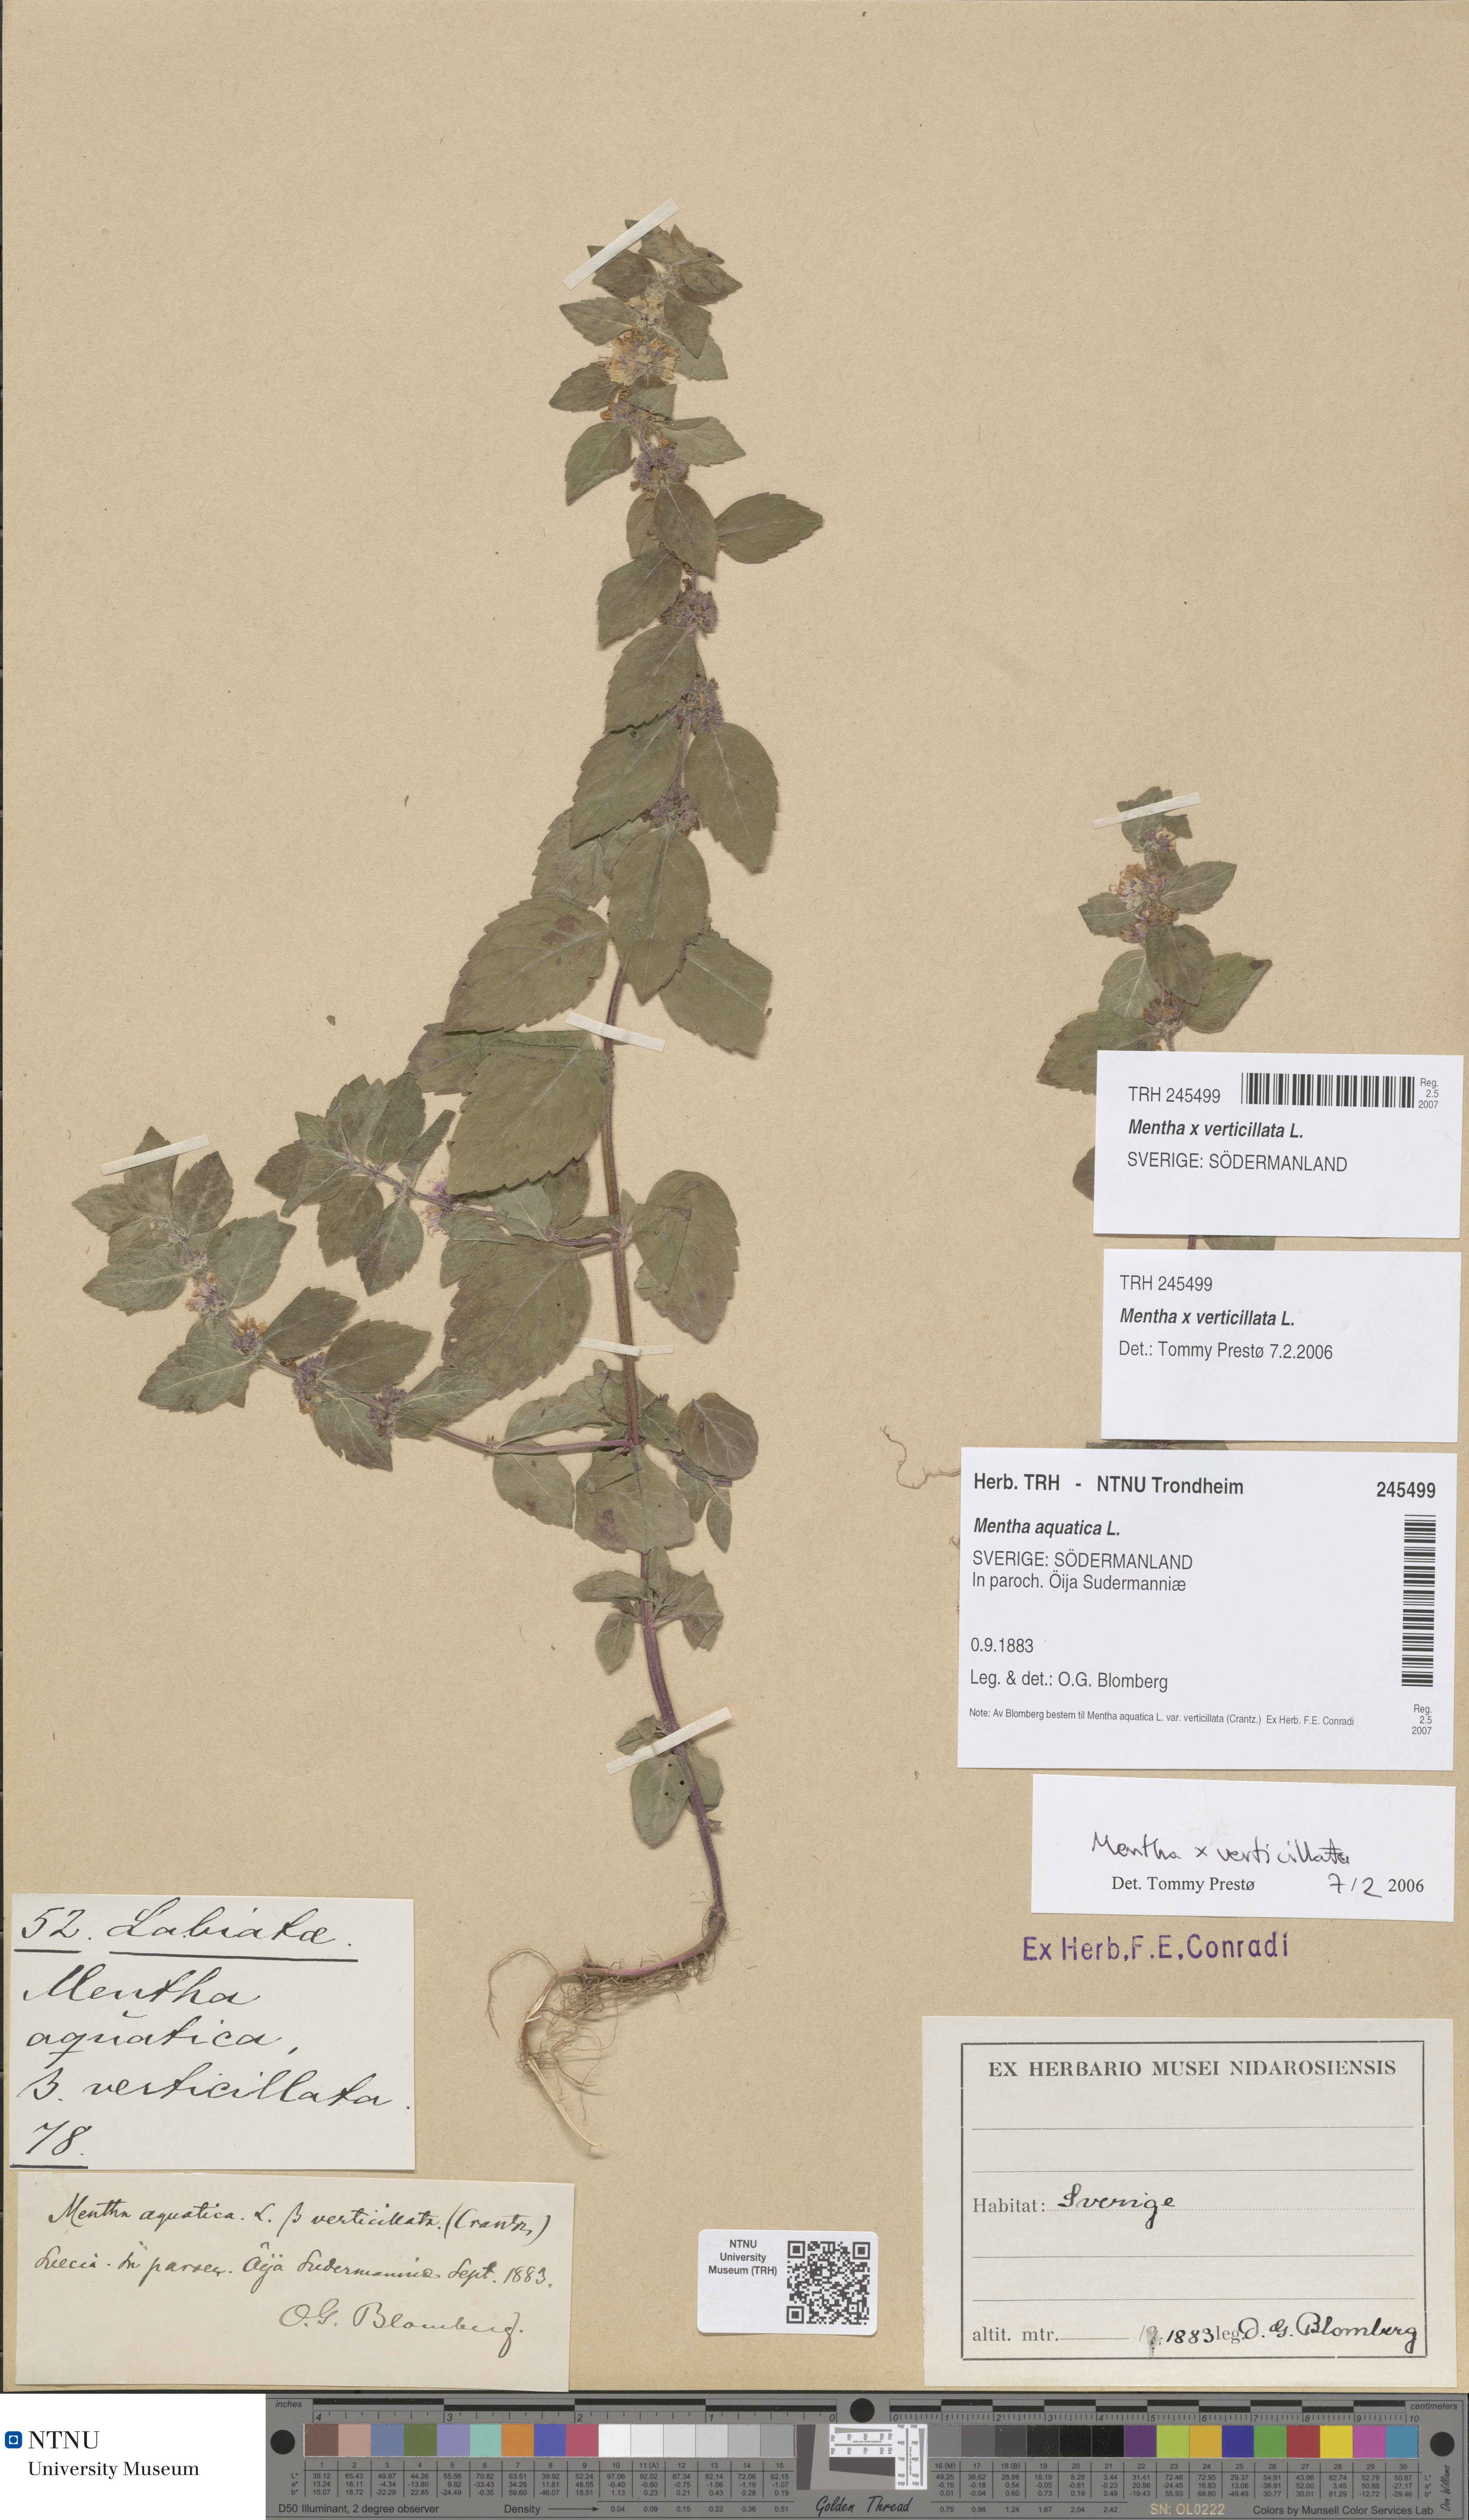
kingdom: Plantae
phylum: Tracheophyta
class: Magnoliopsida
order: Lamiales
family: Lamiaceae
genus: Mentha
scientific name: Mentha verticillata
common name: Mint
